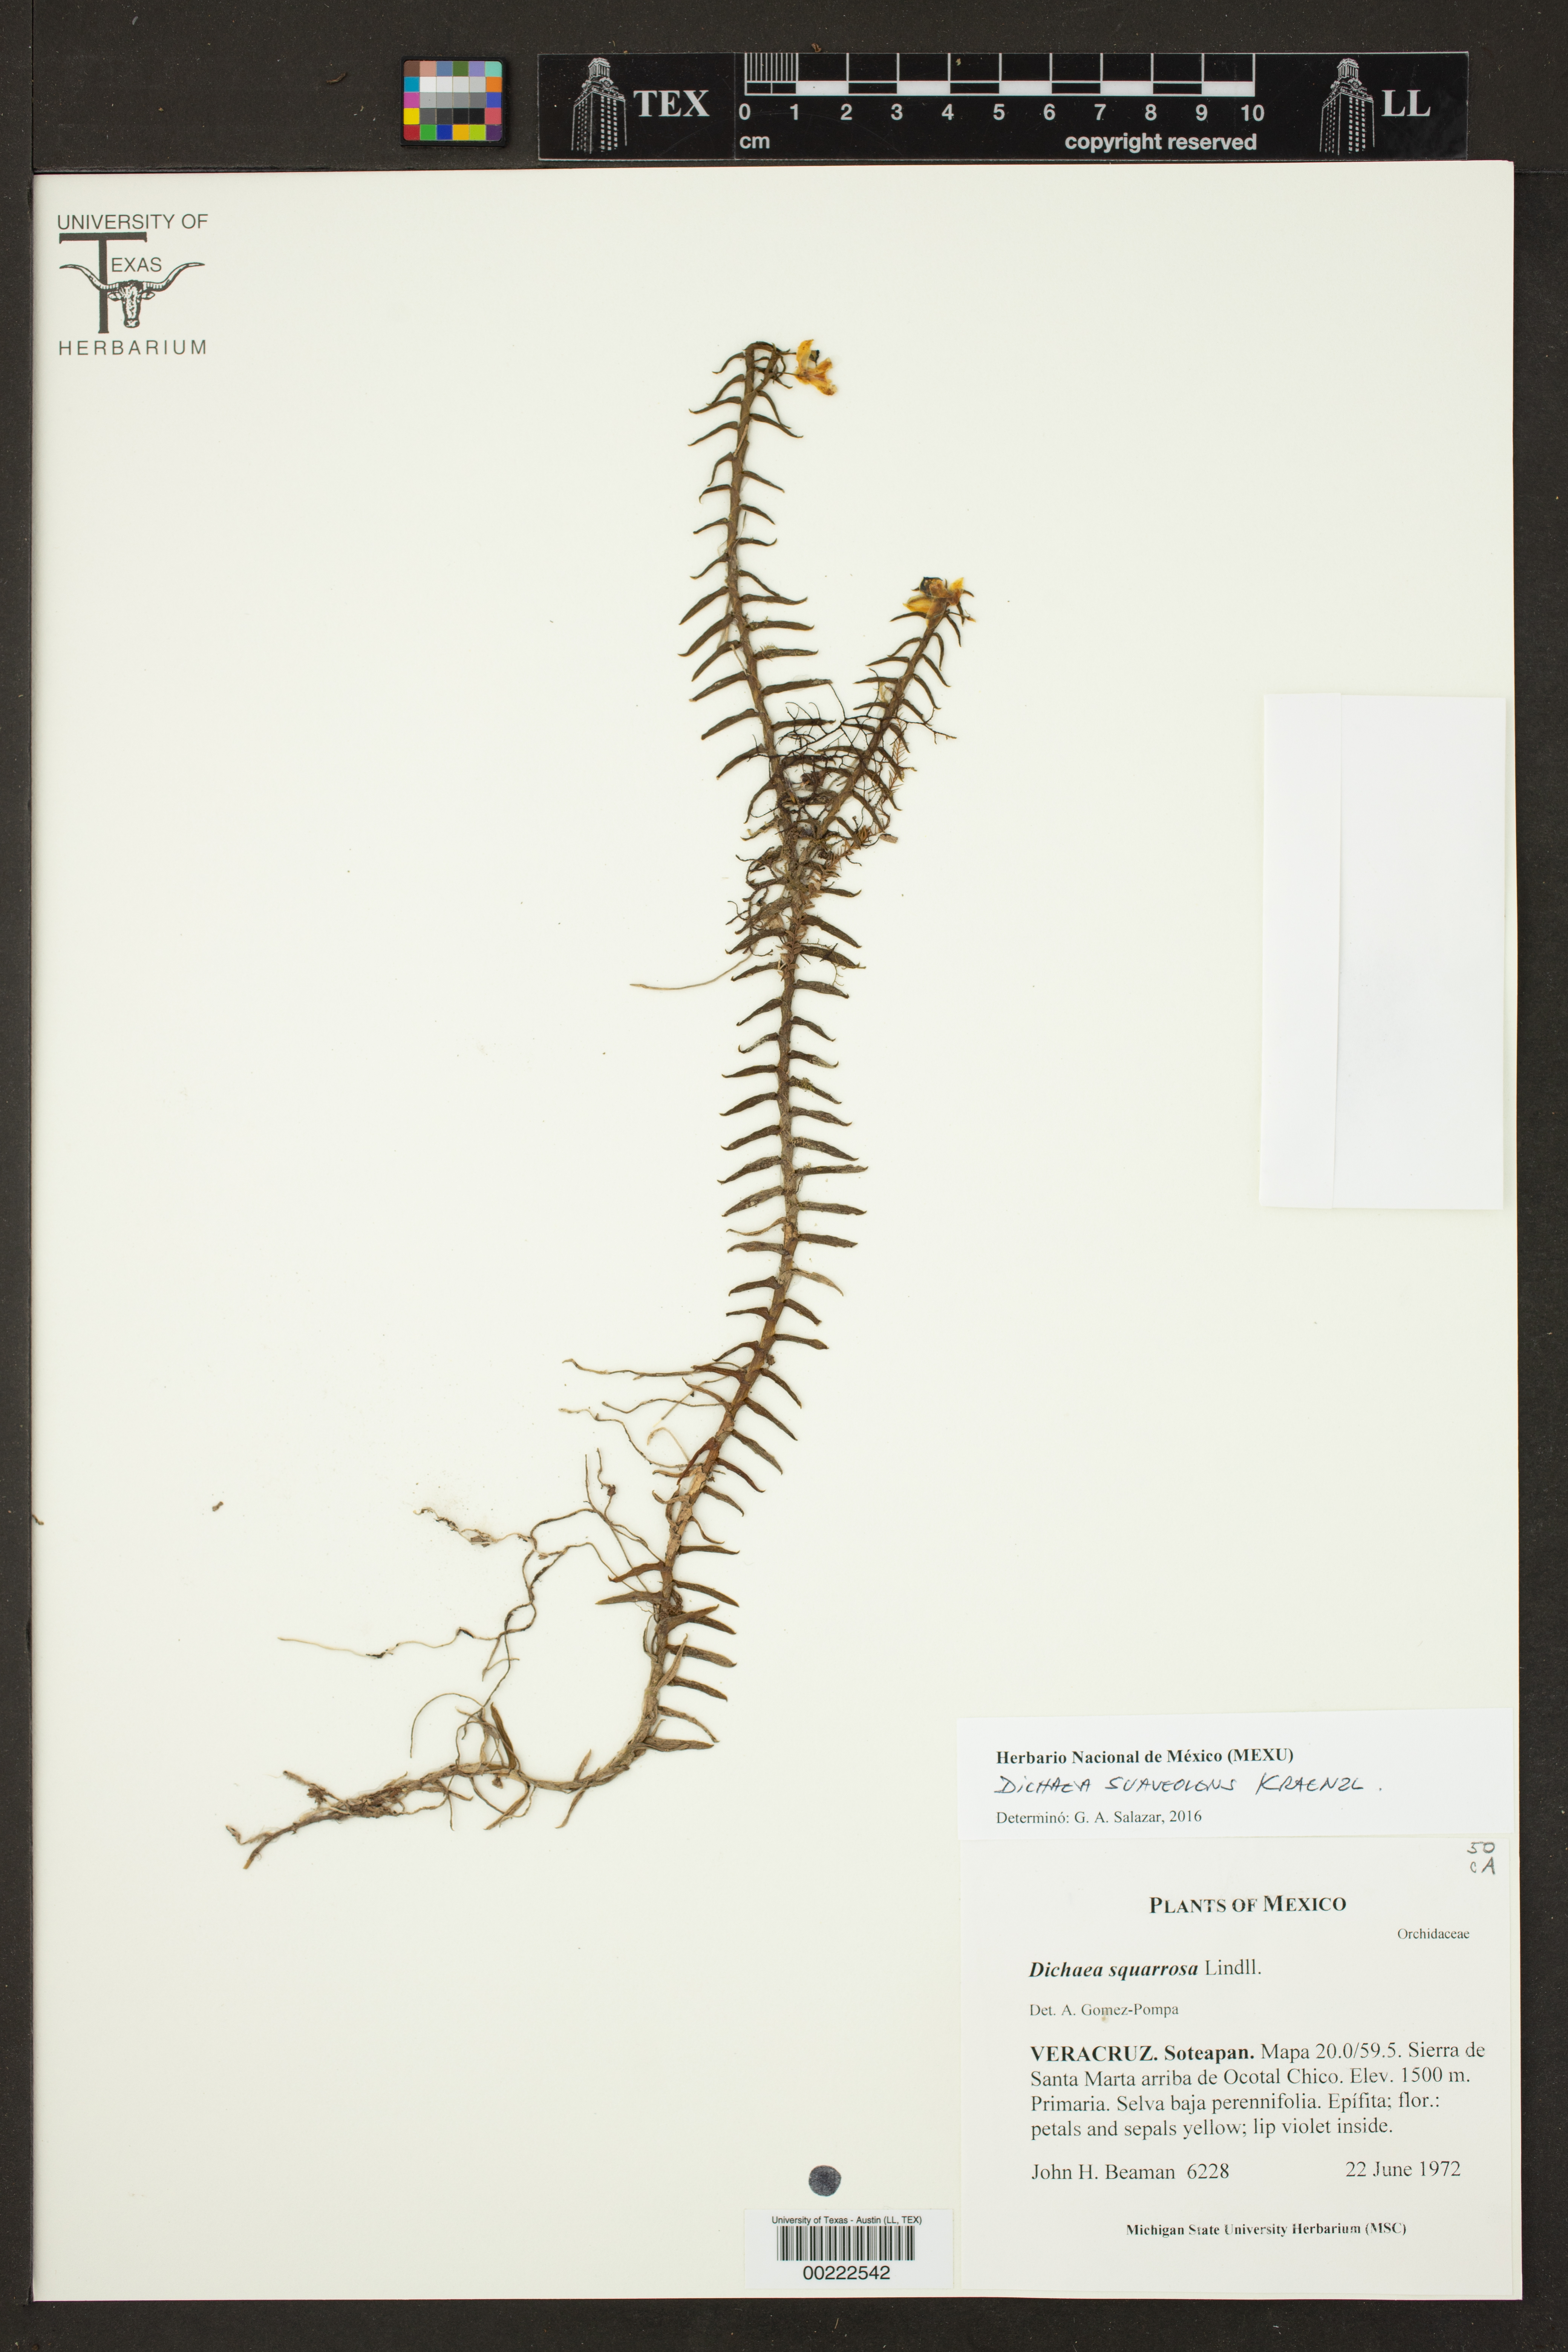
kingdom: Plantae
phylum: Tracheophyta
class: Liliopsida
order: Asparagales
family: Orchidaceae
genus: Dichaea
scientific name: Dichaea squarrosa
